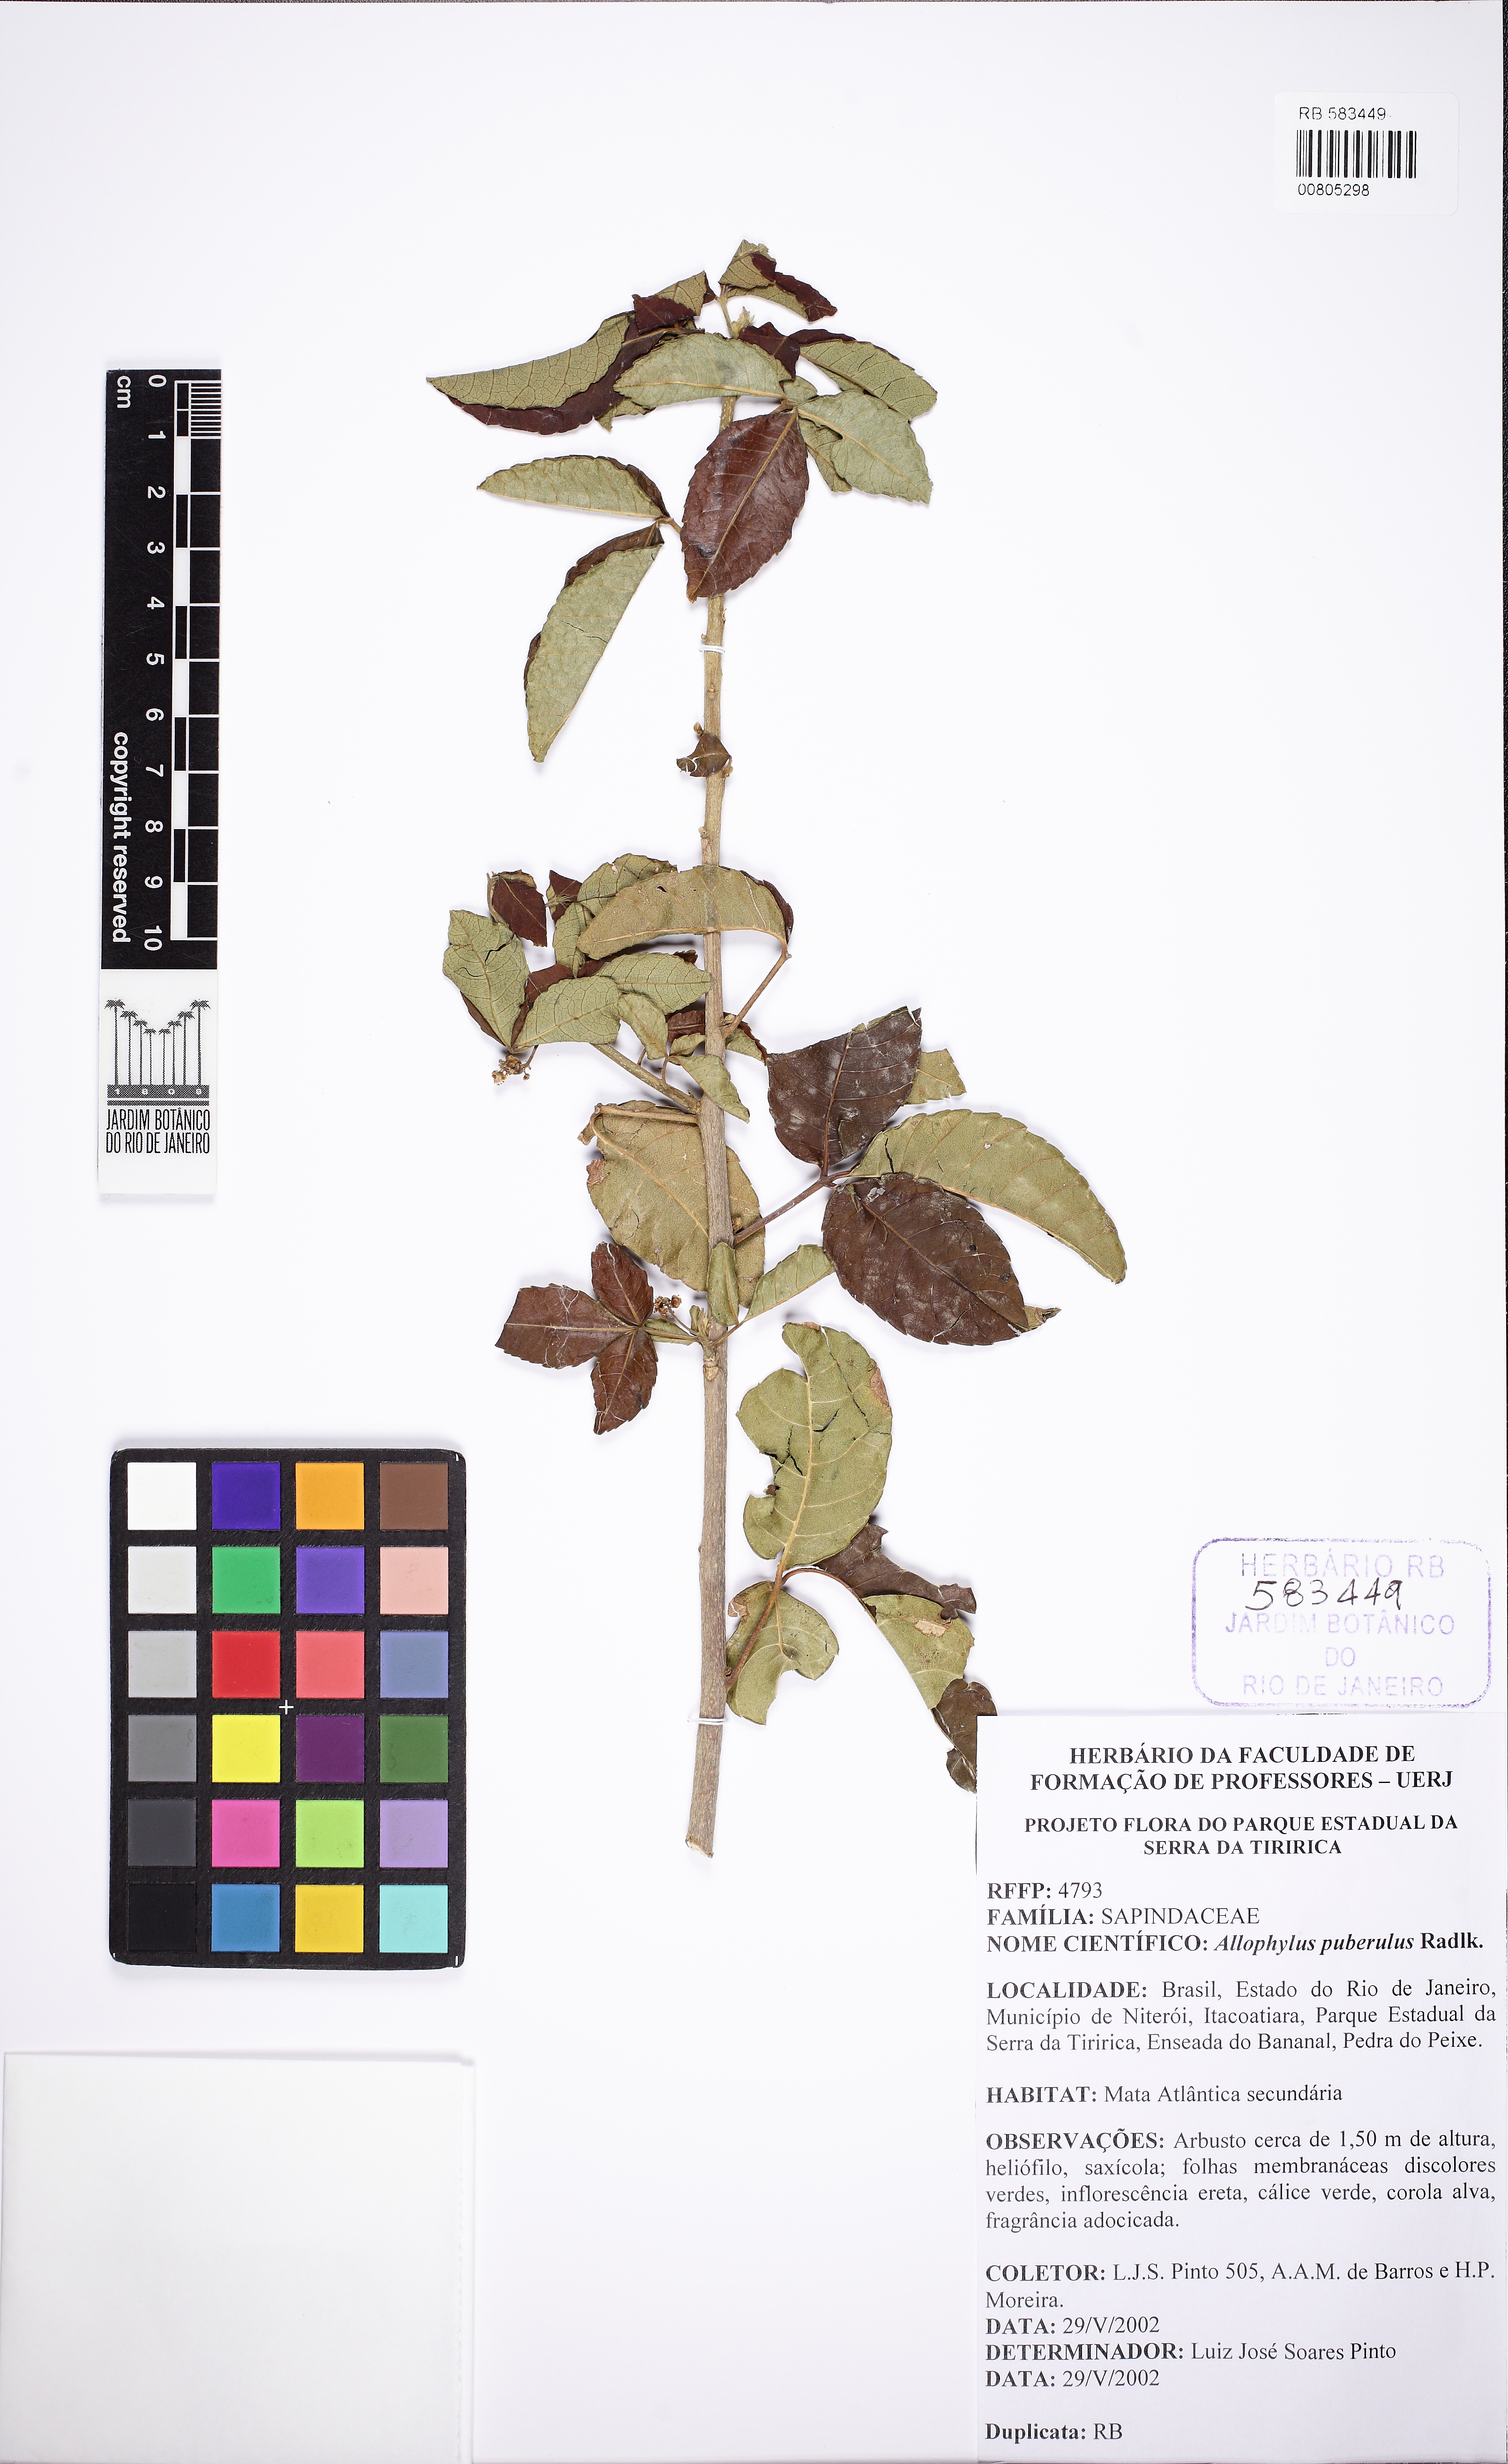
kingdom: Plantae
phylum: Tracheophyta
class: Magnoliopsida
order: Sapindales
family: Sapindaceae
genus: Allophylus
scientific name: Allophylus puberulus
